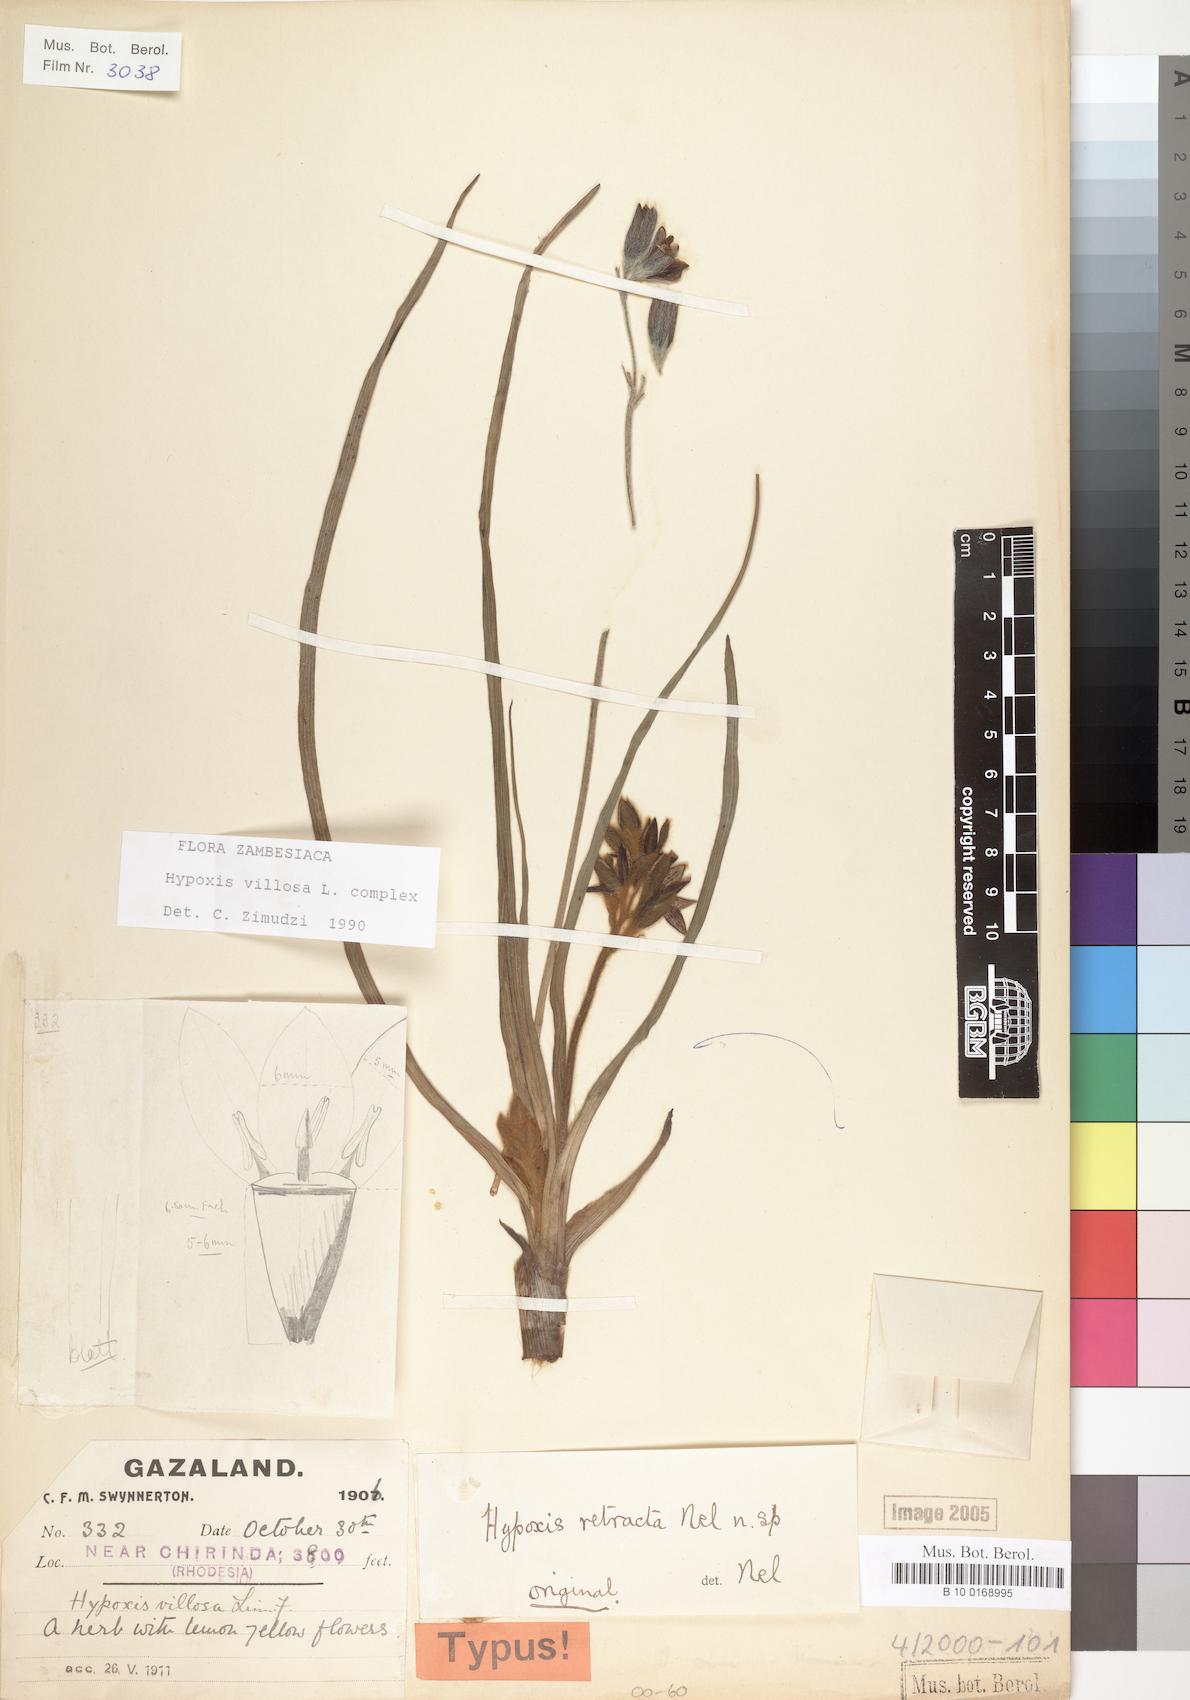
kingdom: Plantae
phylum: Tracheophyta
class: Liliopsida
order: Asparagales
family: Hypoxidaceae
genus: Hypoxis
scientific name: Hypoxis villosa
